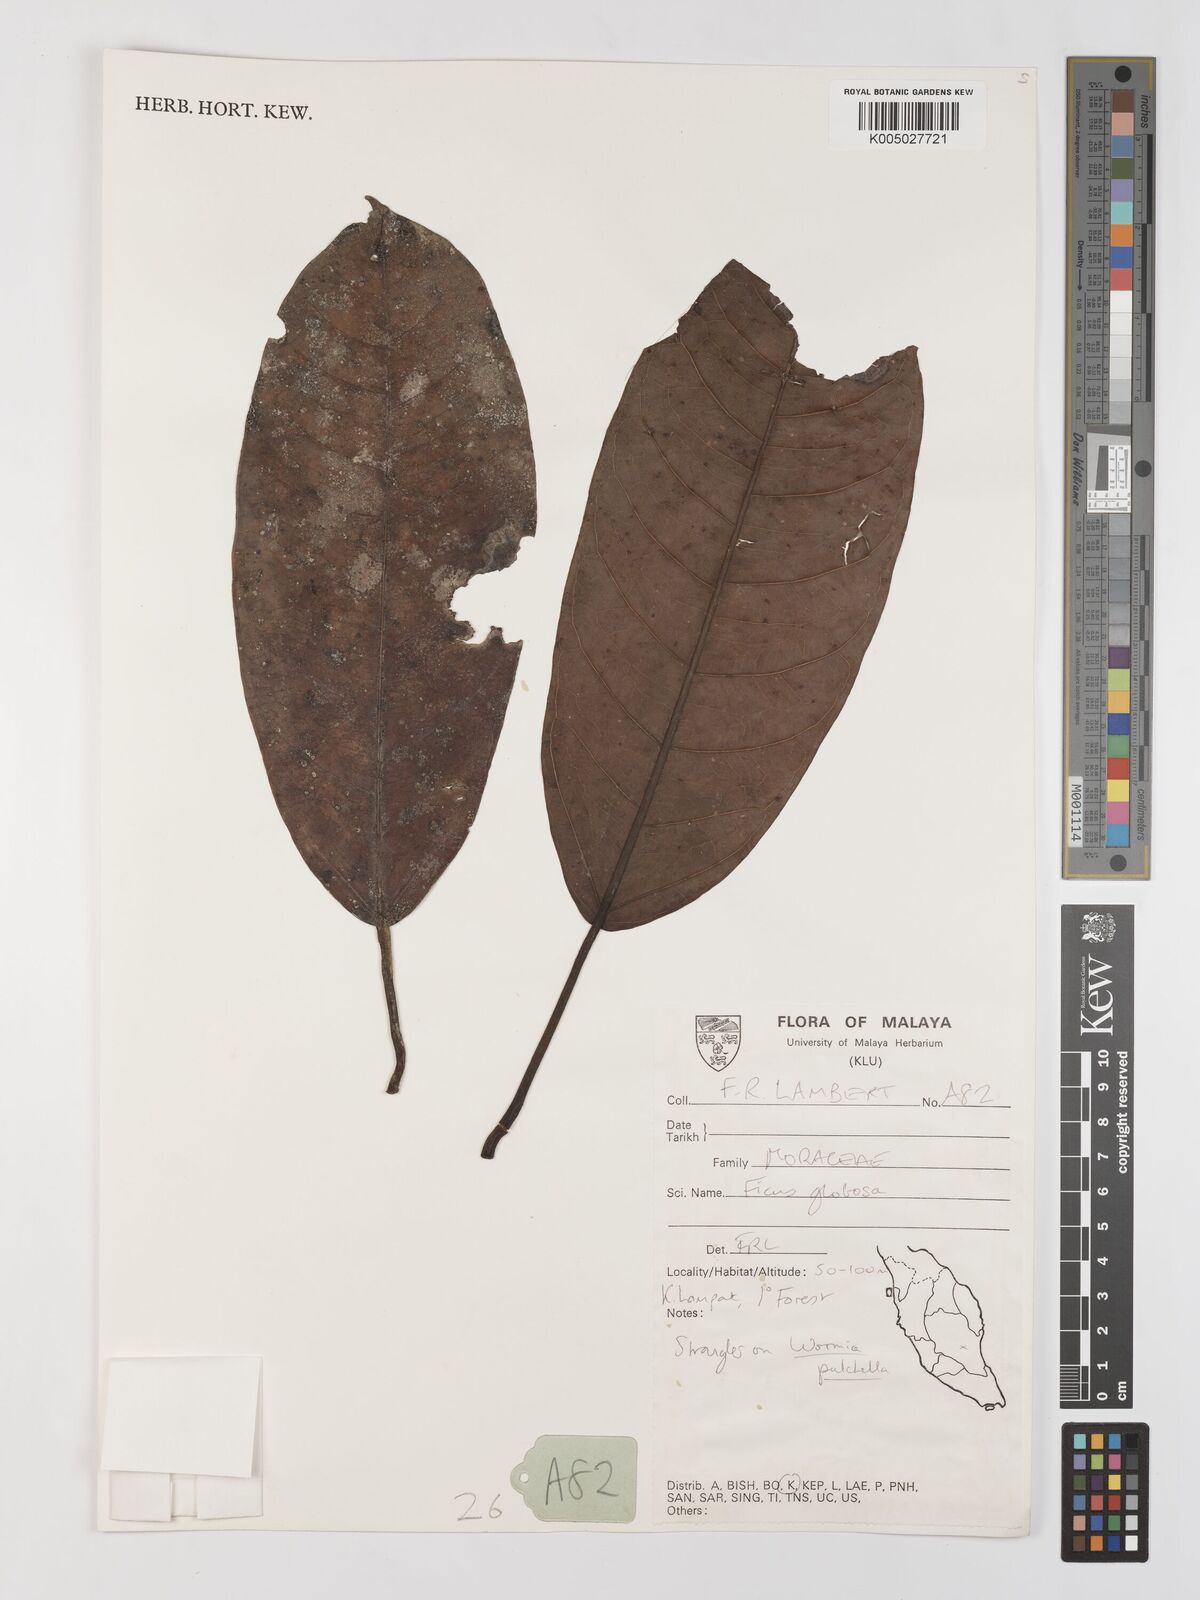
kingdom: Plantae
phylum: Tracheophyta
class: Magnoliopsida
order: Rosales
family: Moraceae
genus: Ficus
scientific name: Ficus
